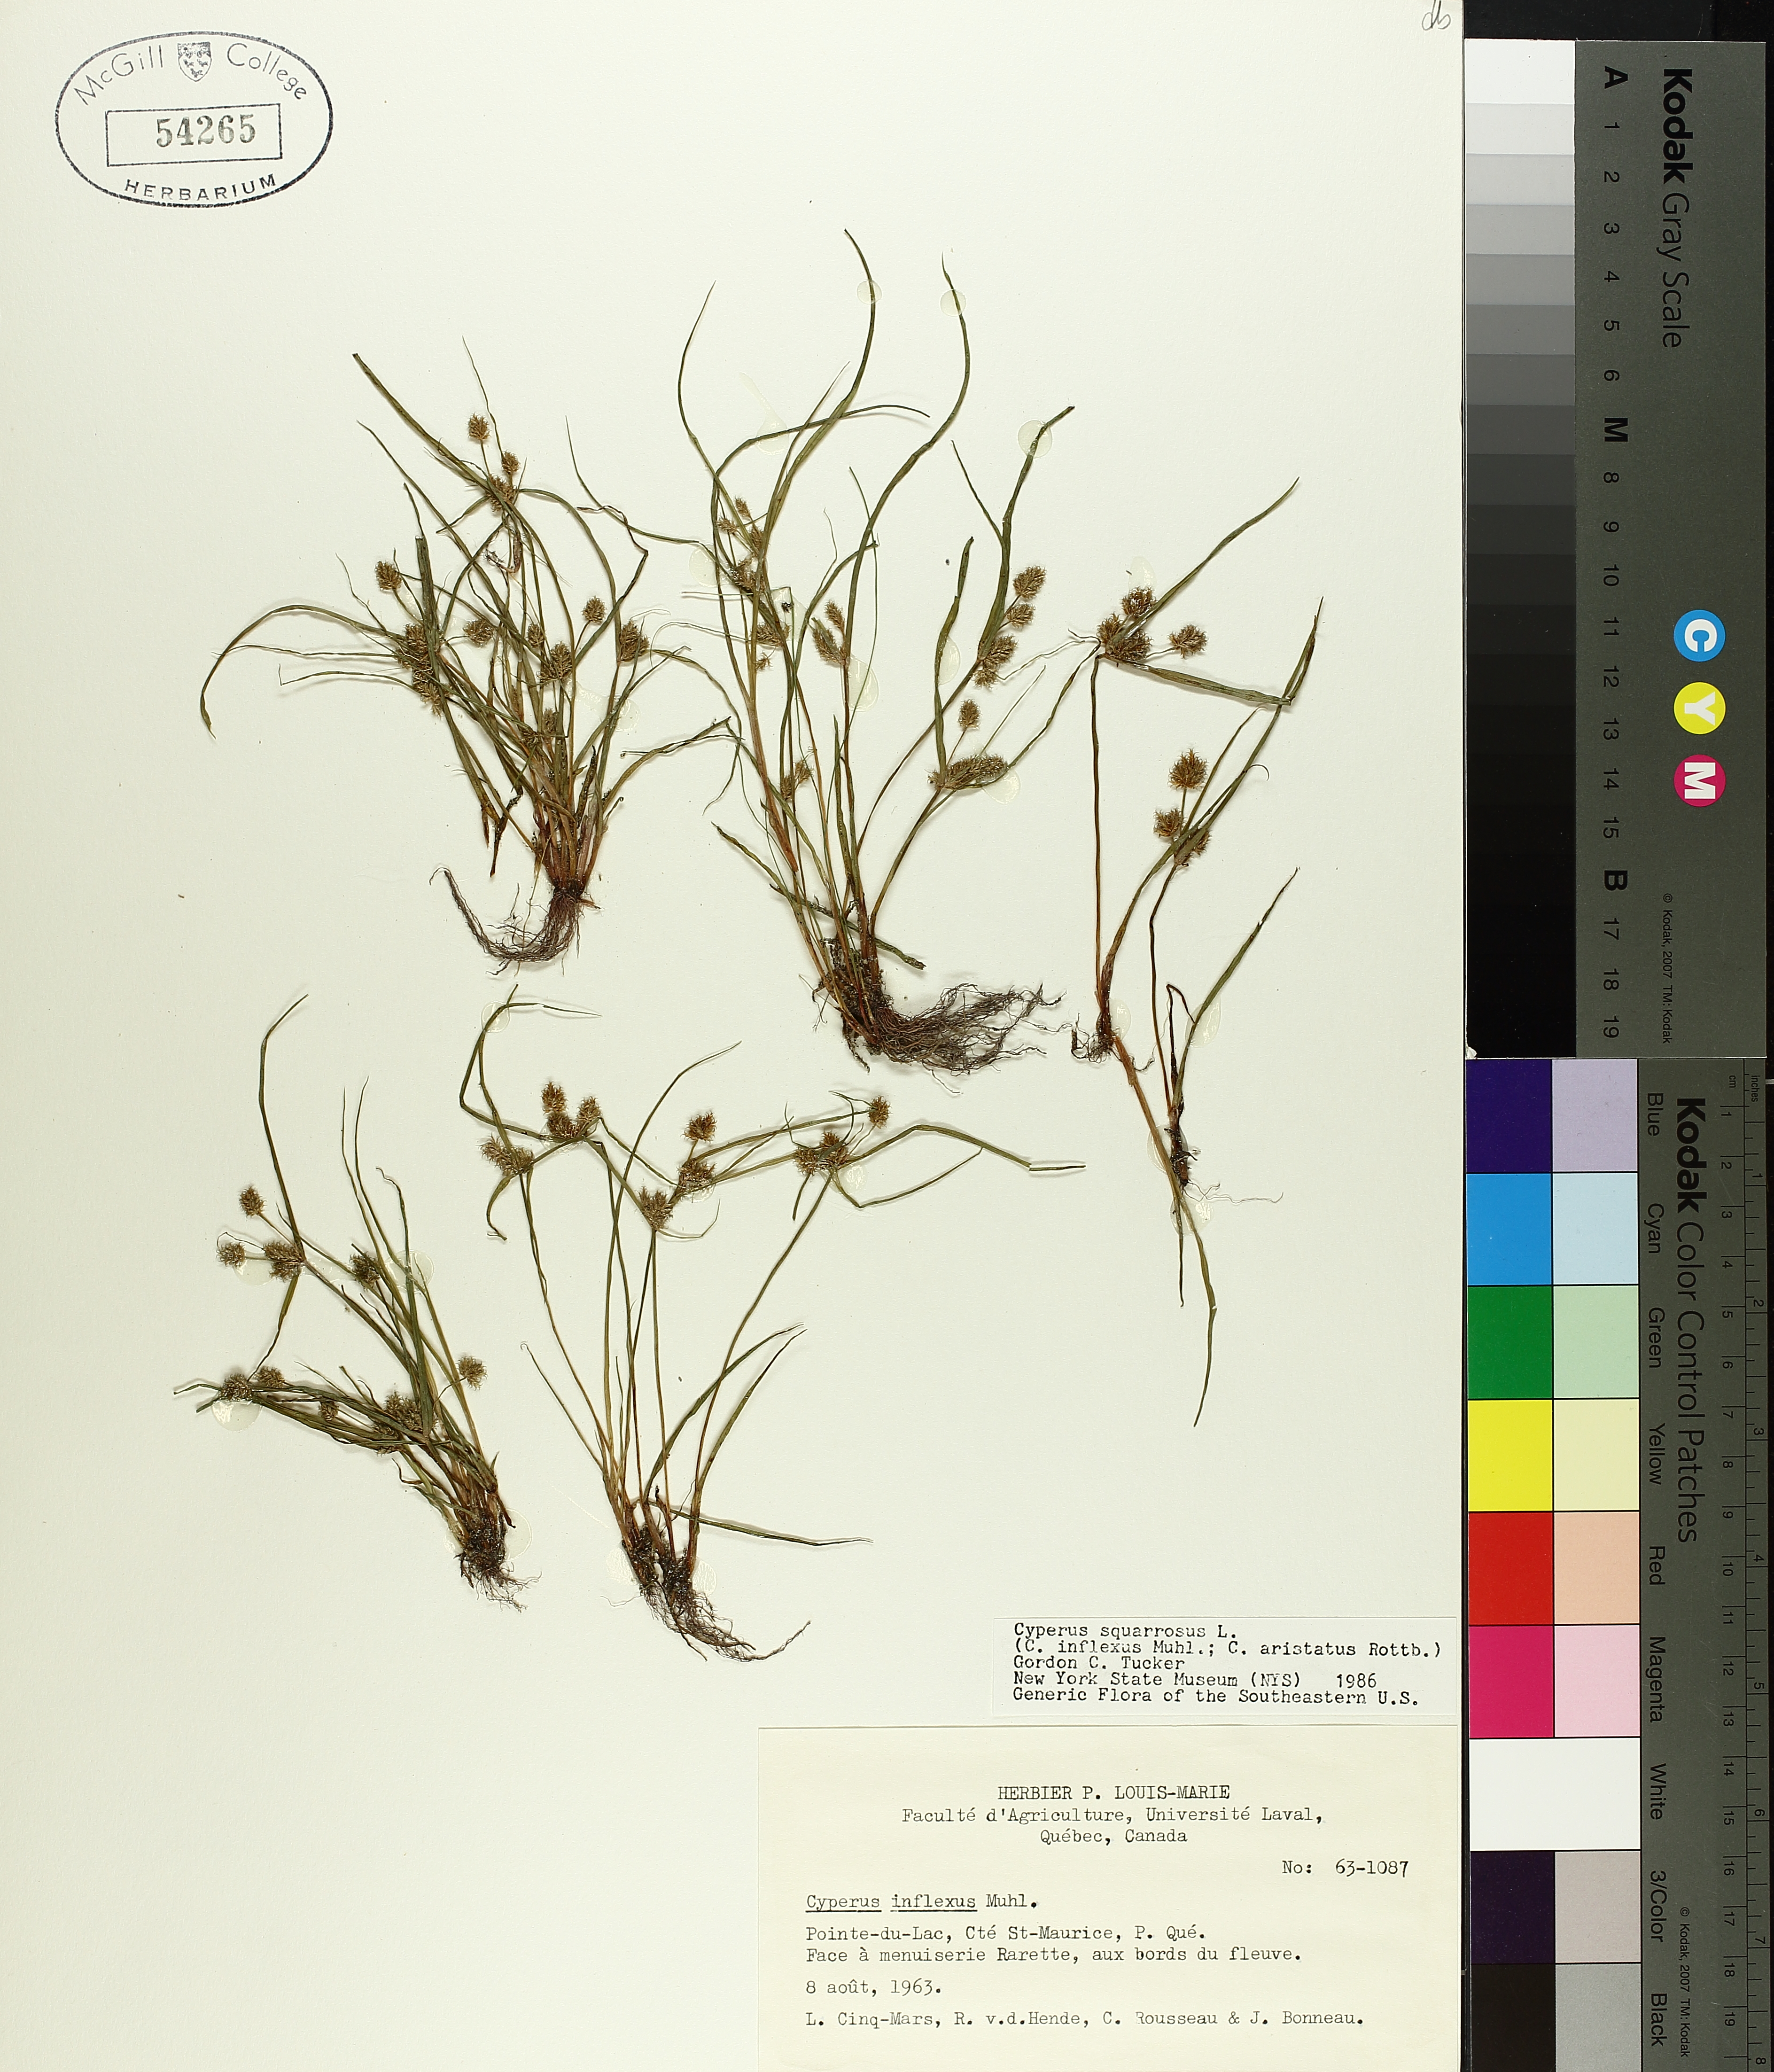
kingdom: Plantae
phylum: Tracheophyta
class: Liliopsida
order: Poales
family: Cyperaceae
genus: Cyperus
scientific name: Cyperus squarrosus
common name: Awned cyperus
